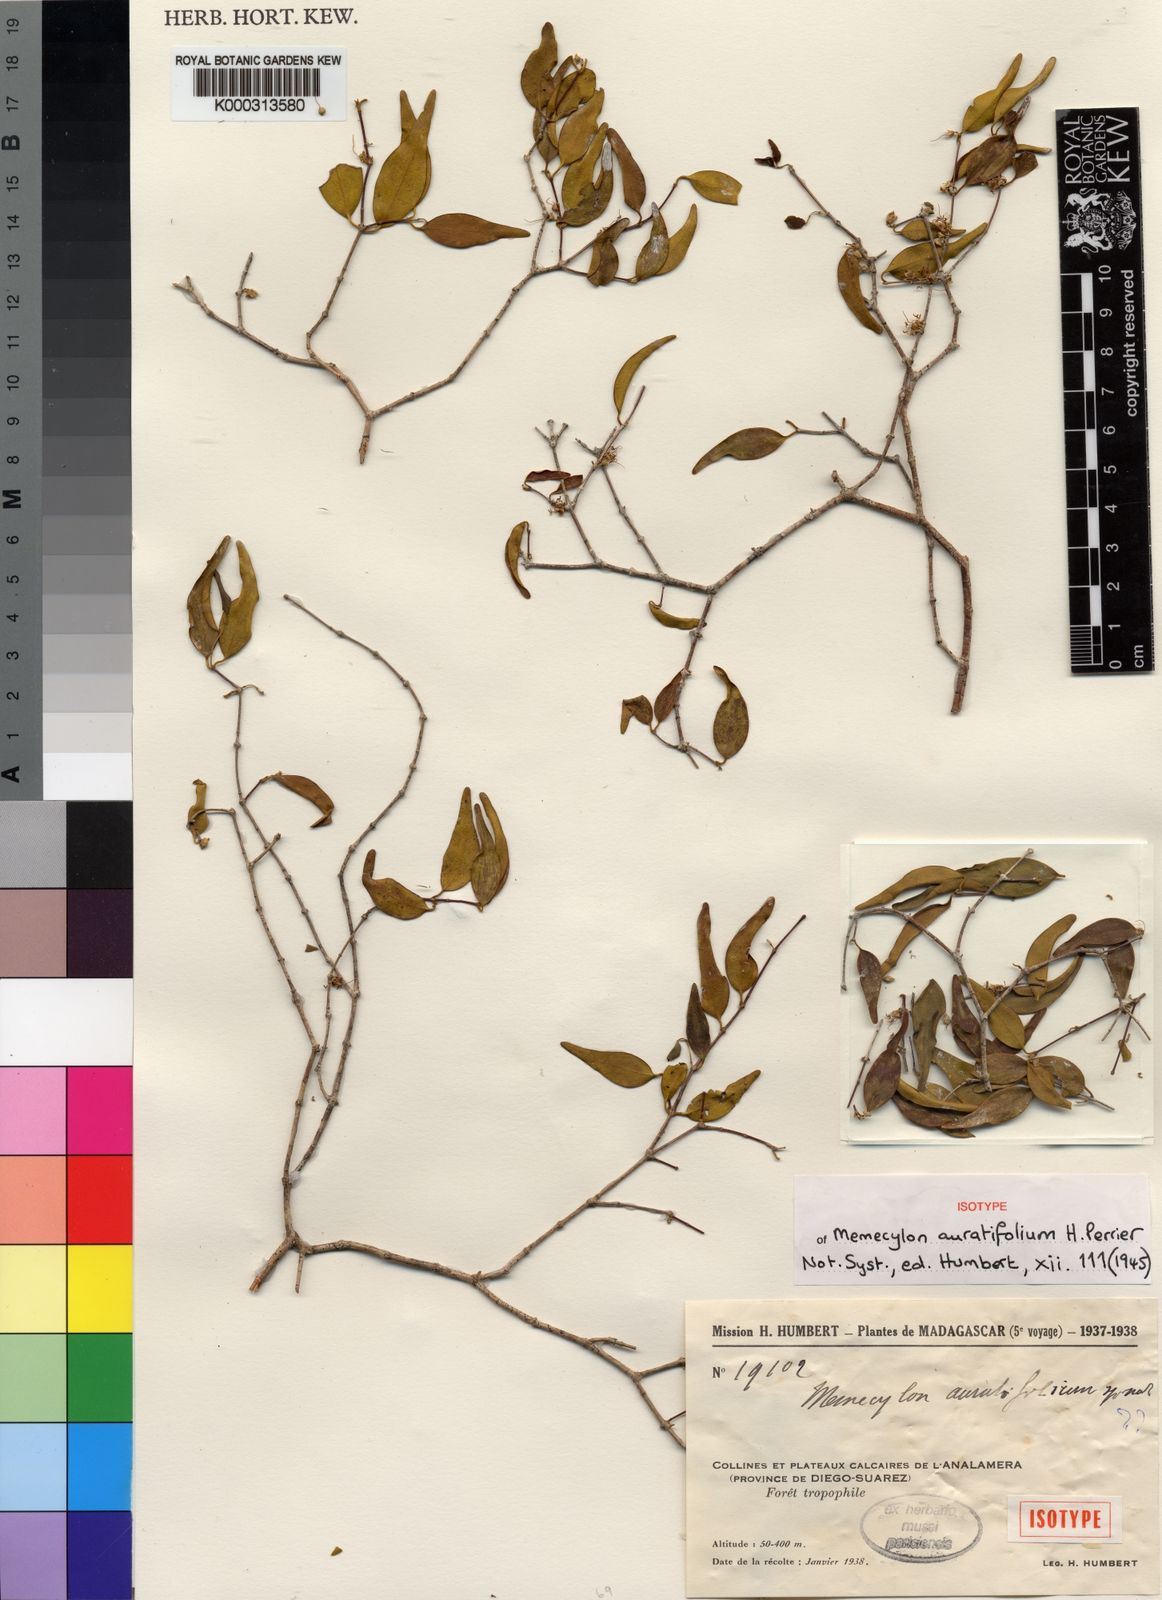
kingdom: Plantae
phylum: Tracheophyta
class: Magnoliopsida
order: Myrtales
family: Melastomataceae
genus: Memecylon
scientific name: Memecylon auratifolium
